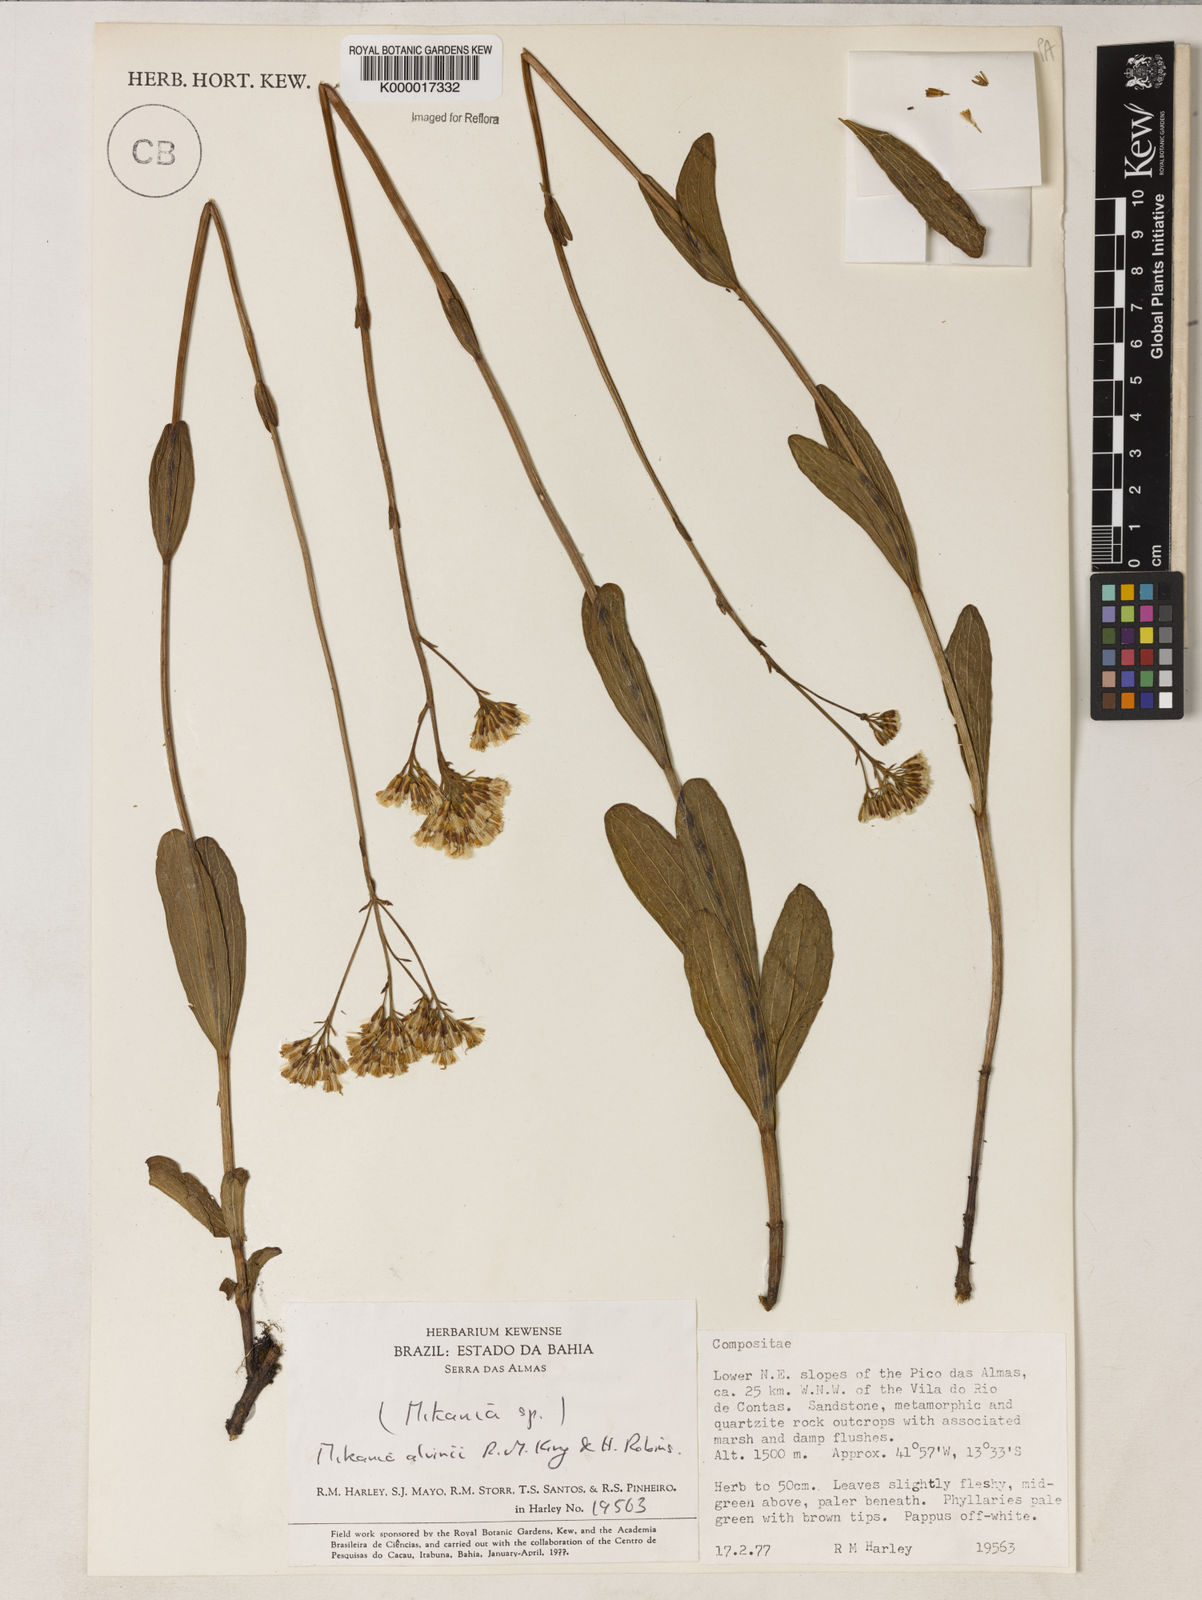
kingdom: Plantae
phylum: Tracheophyta
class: Magnoliopsida
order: Asterales
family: Asteraceae
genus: Mikania
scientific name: Mikania alvimii
